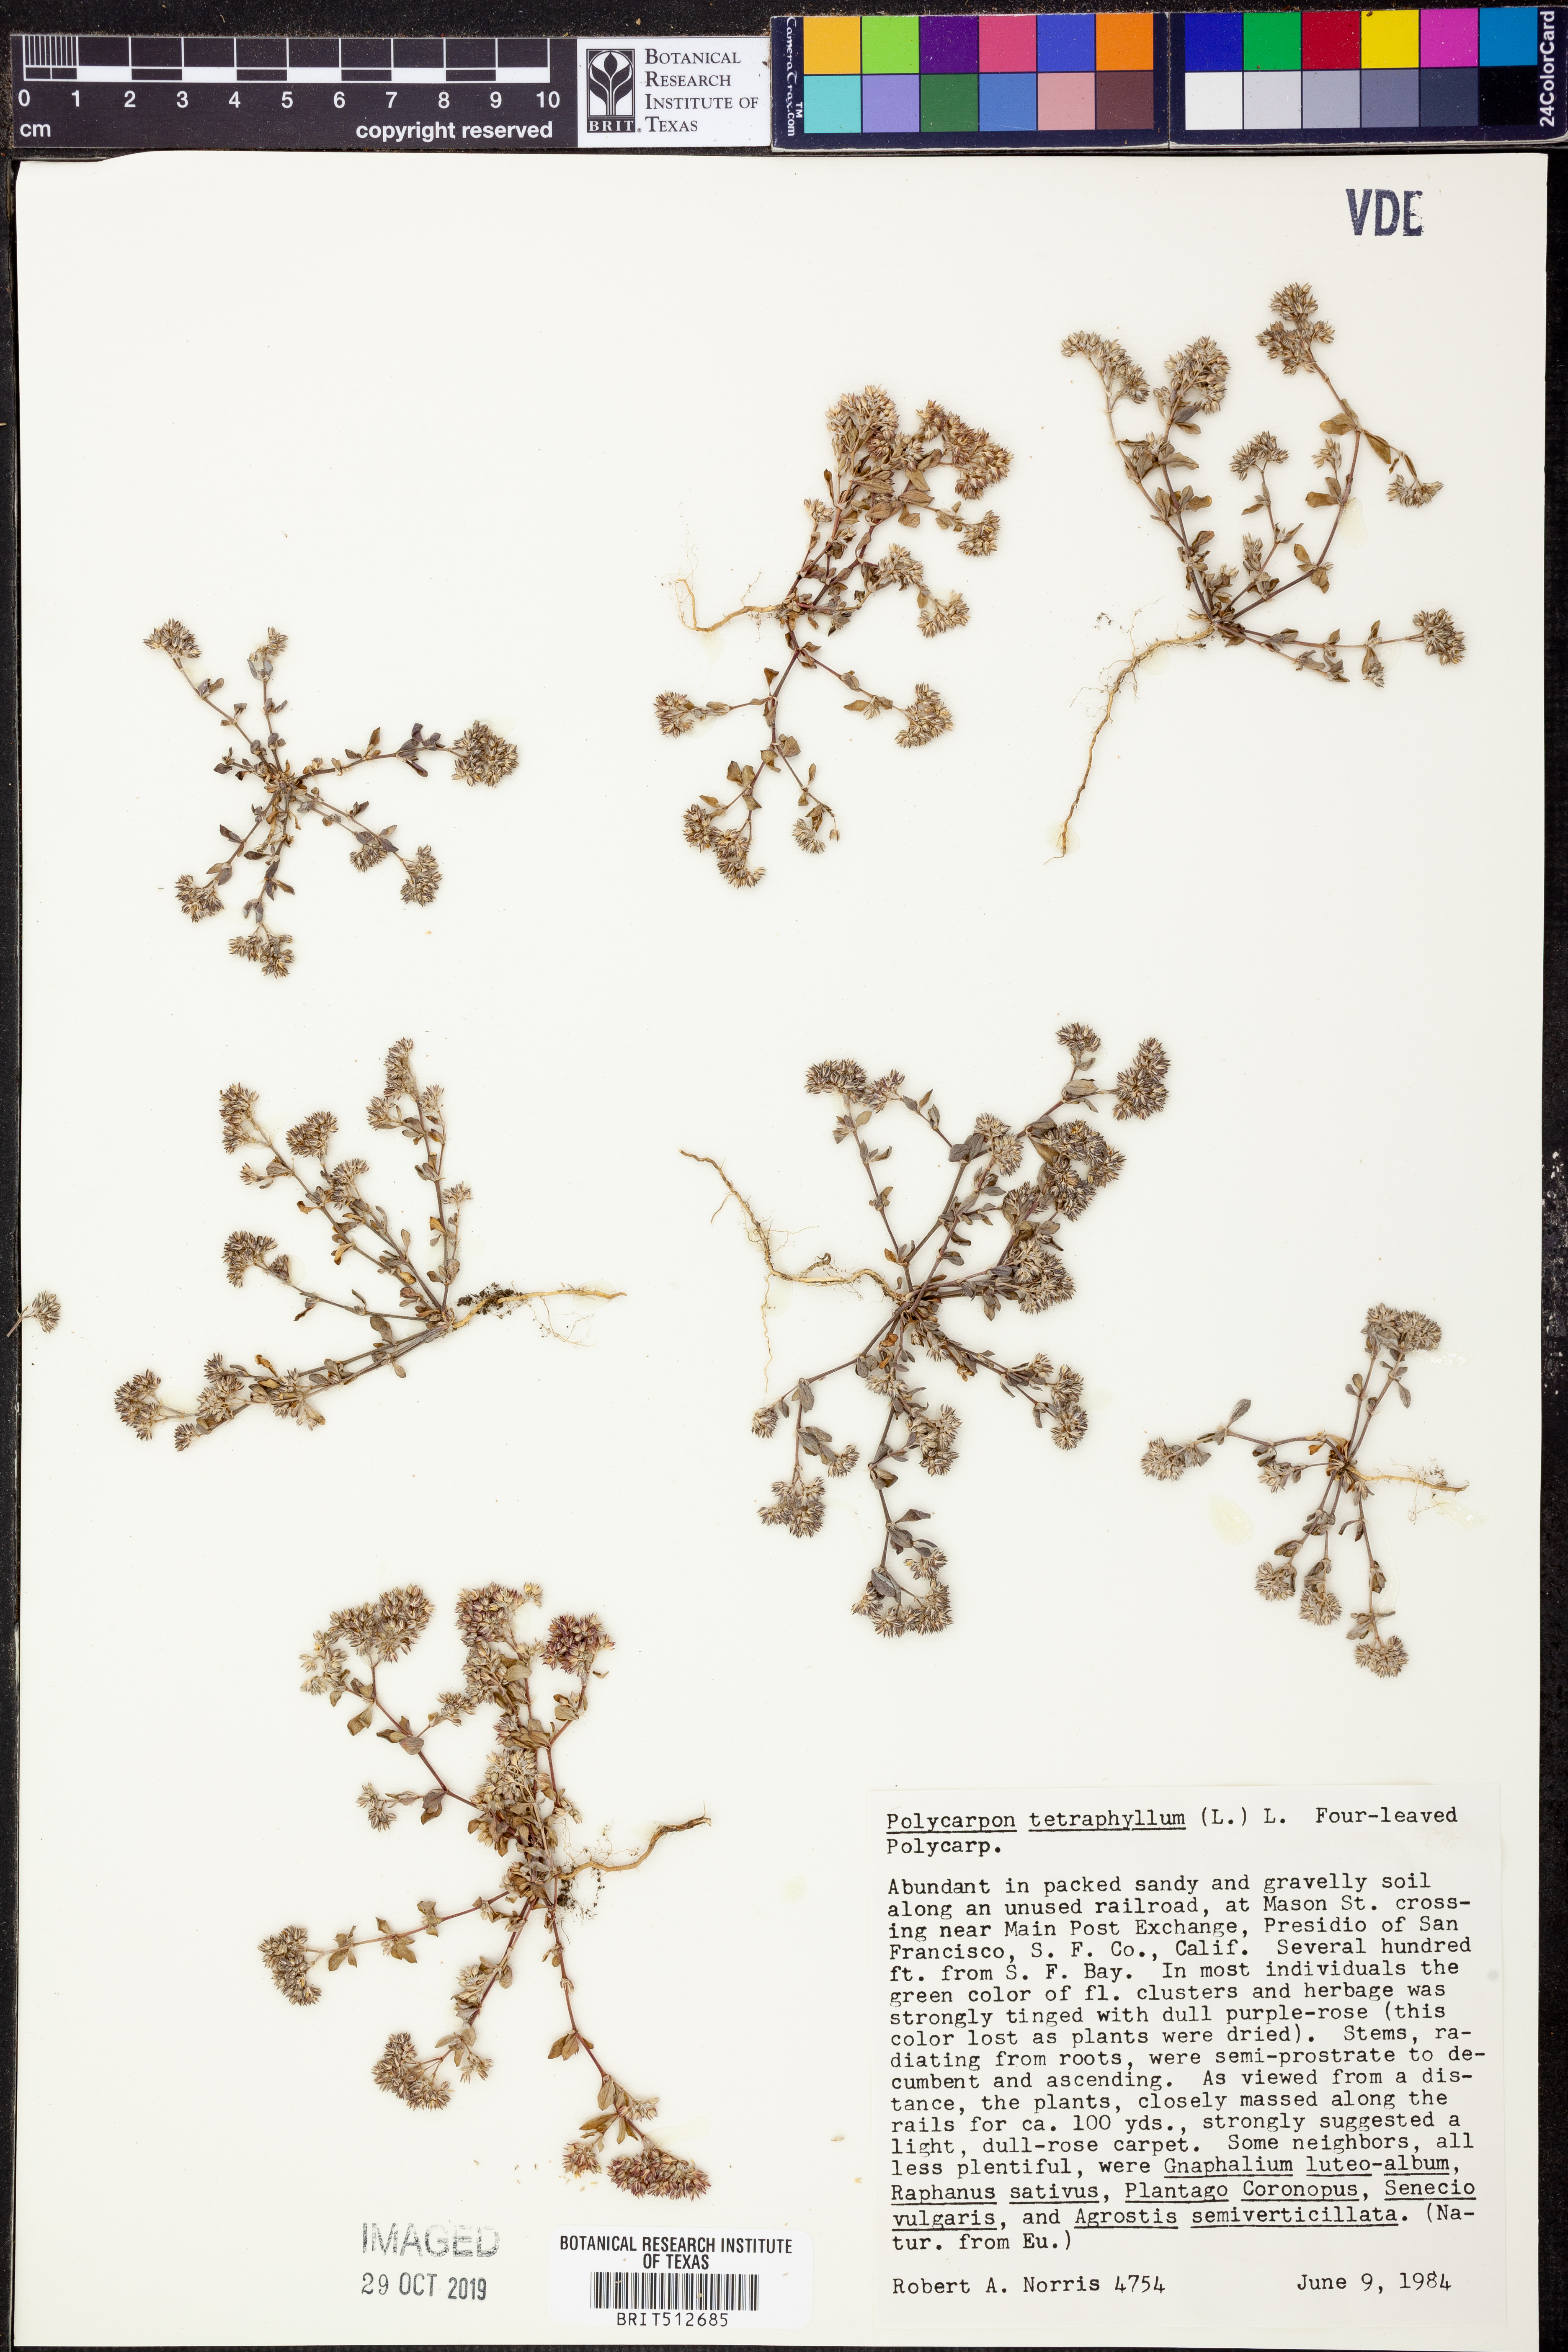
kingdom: Plantae
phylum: Tracheophyta
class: Magnoliopsida
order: Caryophyllales
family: Caryophyllaceae
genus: Polycarpon
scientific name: Polycarpon tetraphyllum
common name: Four-leaved all-seed
